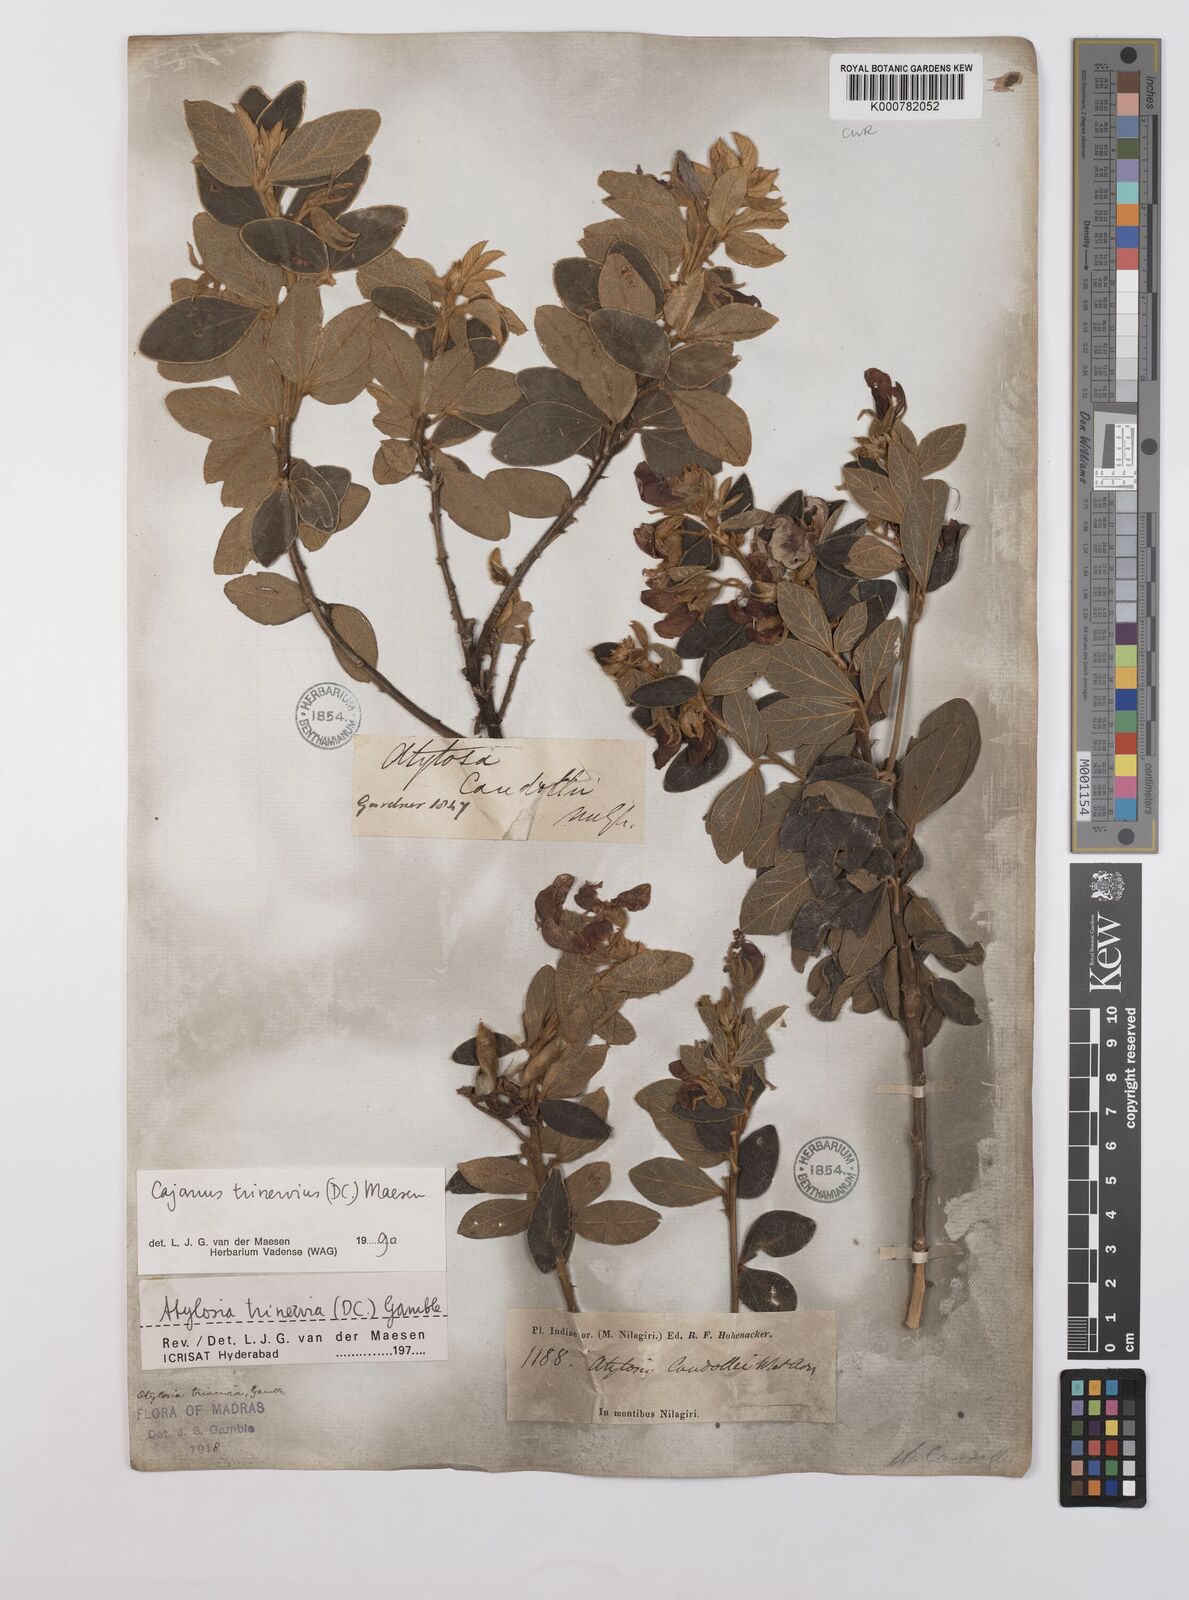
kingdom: Plantae
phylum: Tracheophyta
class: Magnoliopsida
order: Fabales
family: Fabaceae
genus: Cajanus
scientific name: Cajanus trinervius
